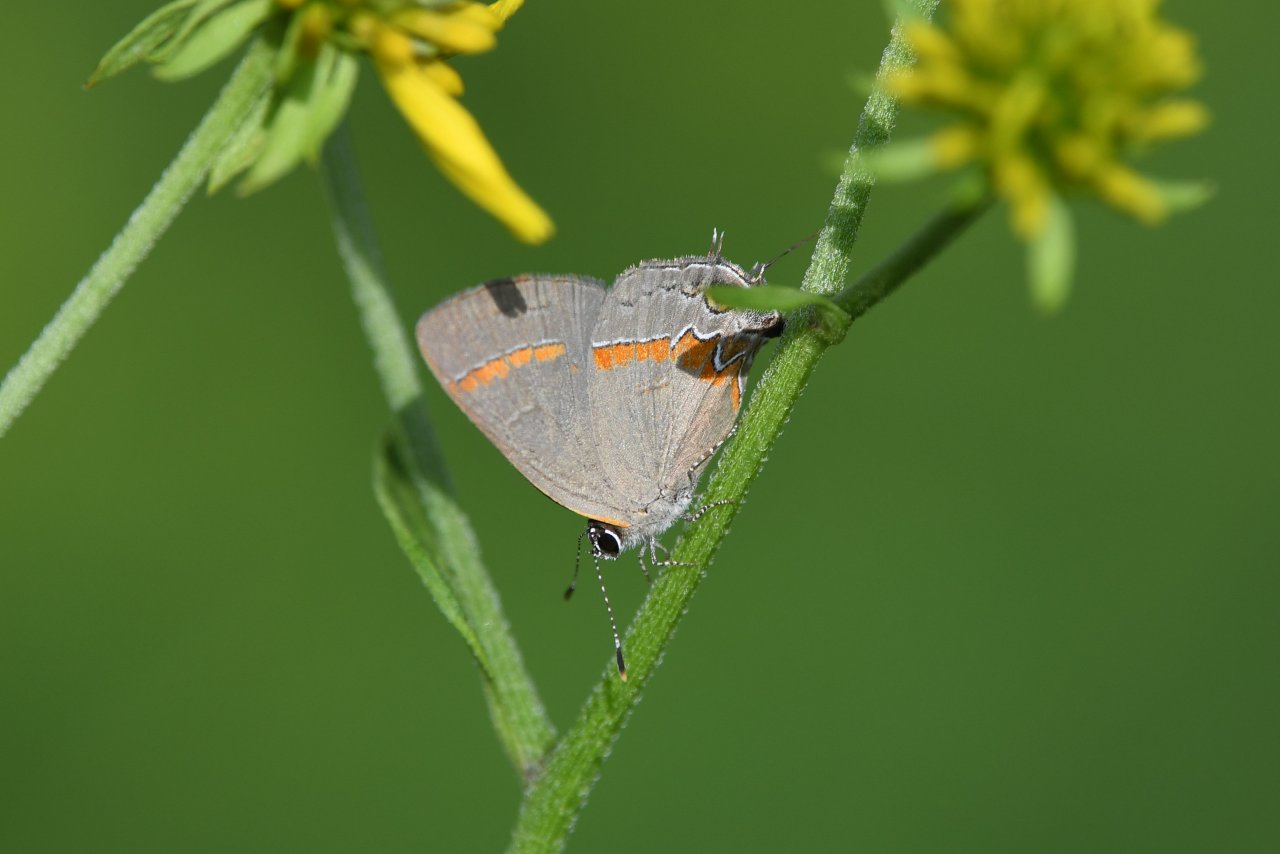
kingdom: Animalia
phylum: Arthropoda
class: Insecta
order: Lepidoptera
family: Lycaenidae
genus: Calycopis
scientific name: Calycopis cecrops
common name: Red-banded Hairstreak
